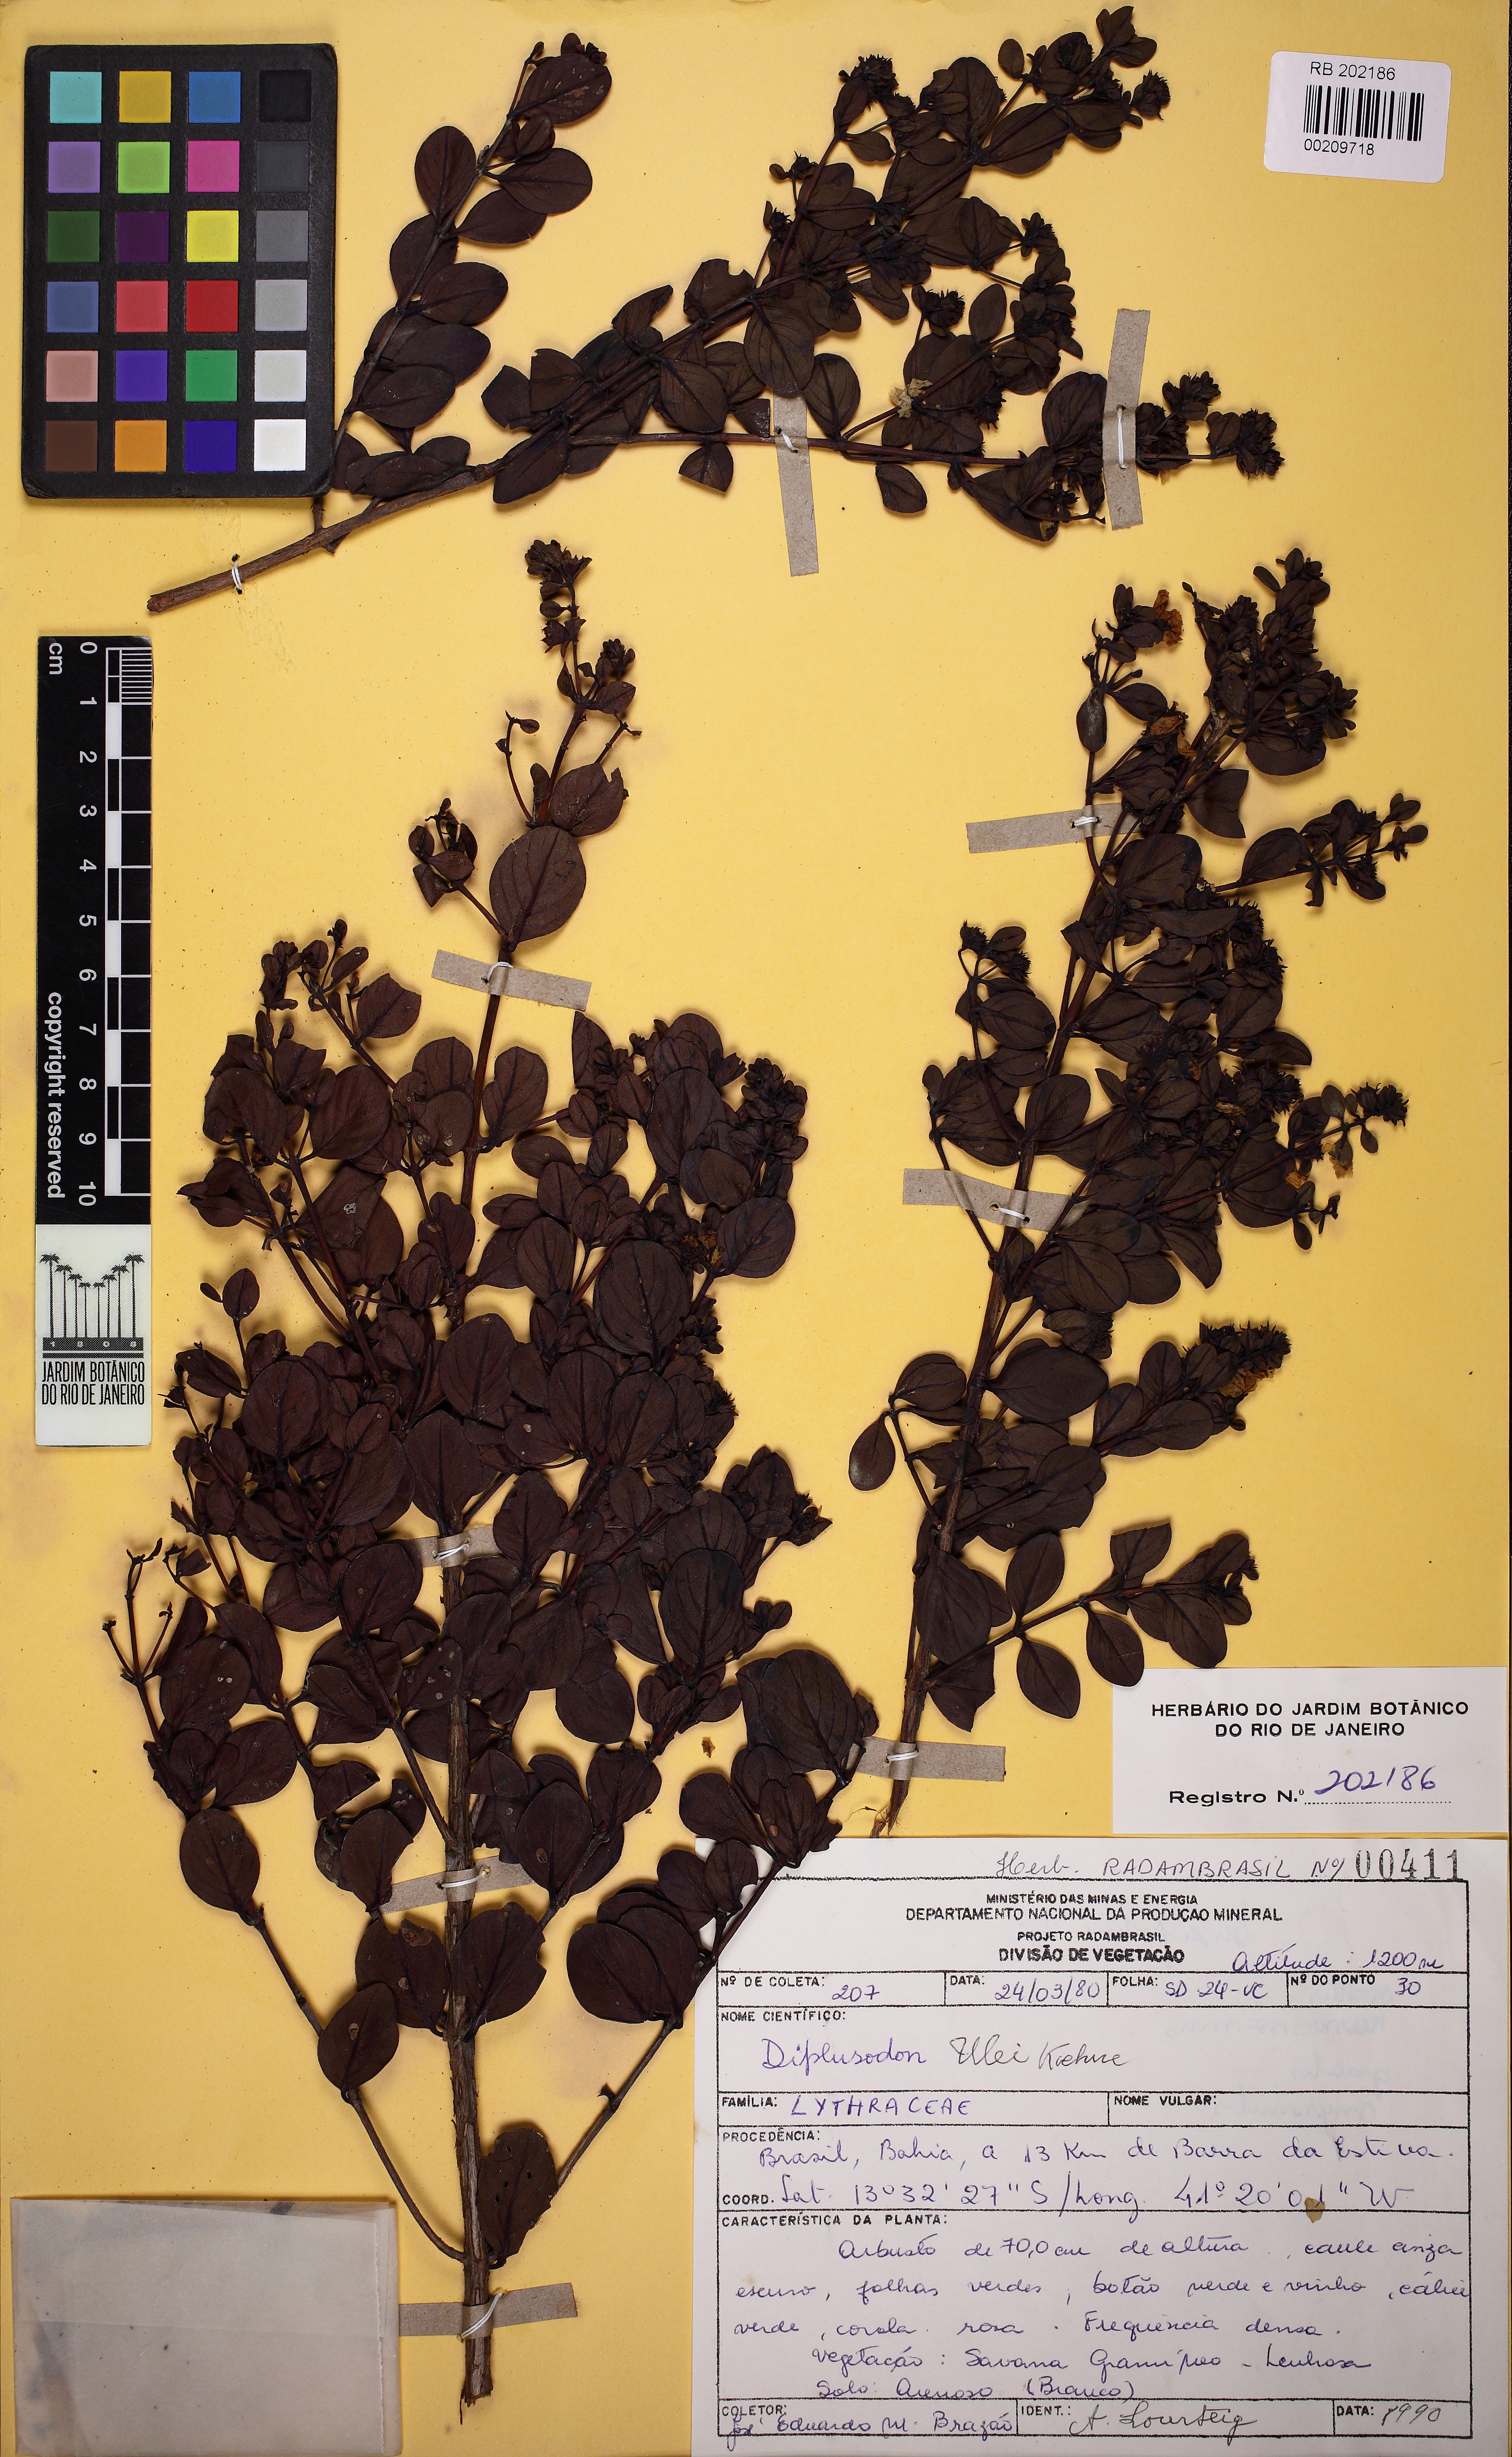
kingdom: Plantae
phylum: Tracheophyta
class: Magnoliopsida
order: Myrtales
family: Lythraceae
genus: Diplusodon
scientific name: Diplusodon ulei
